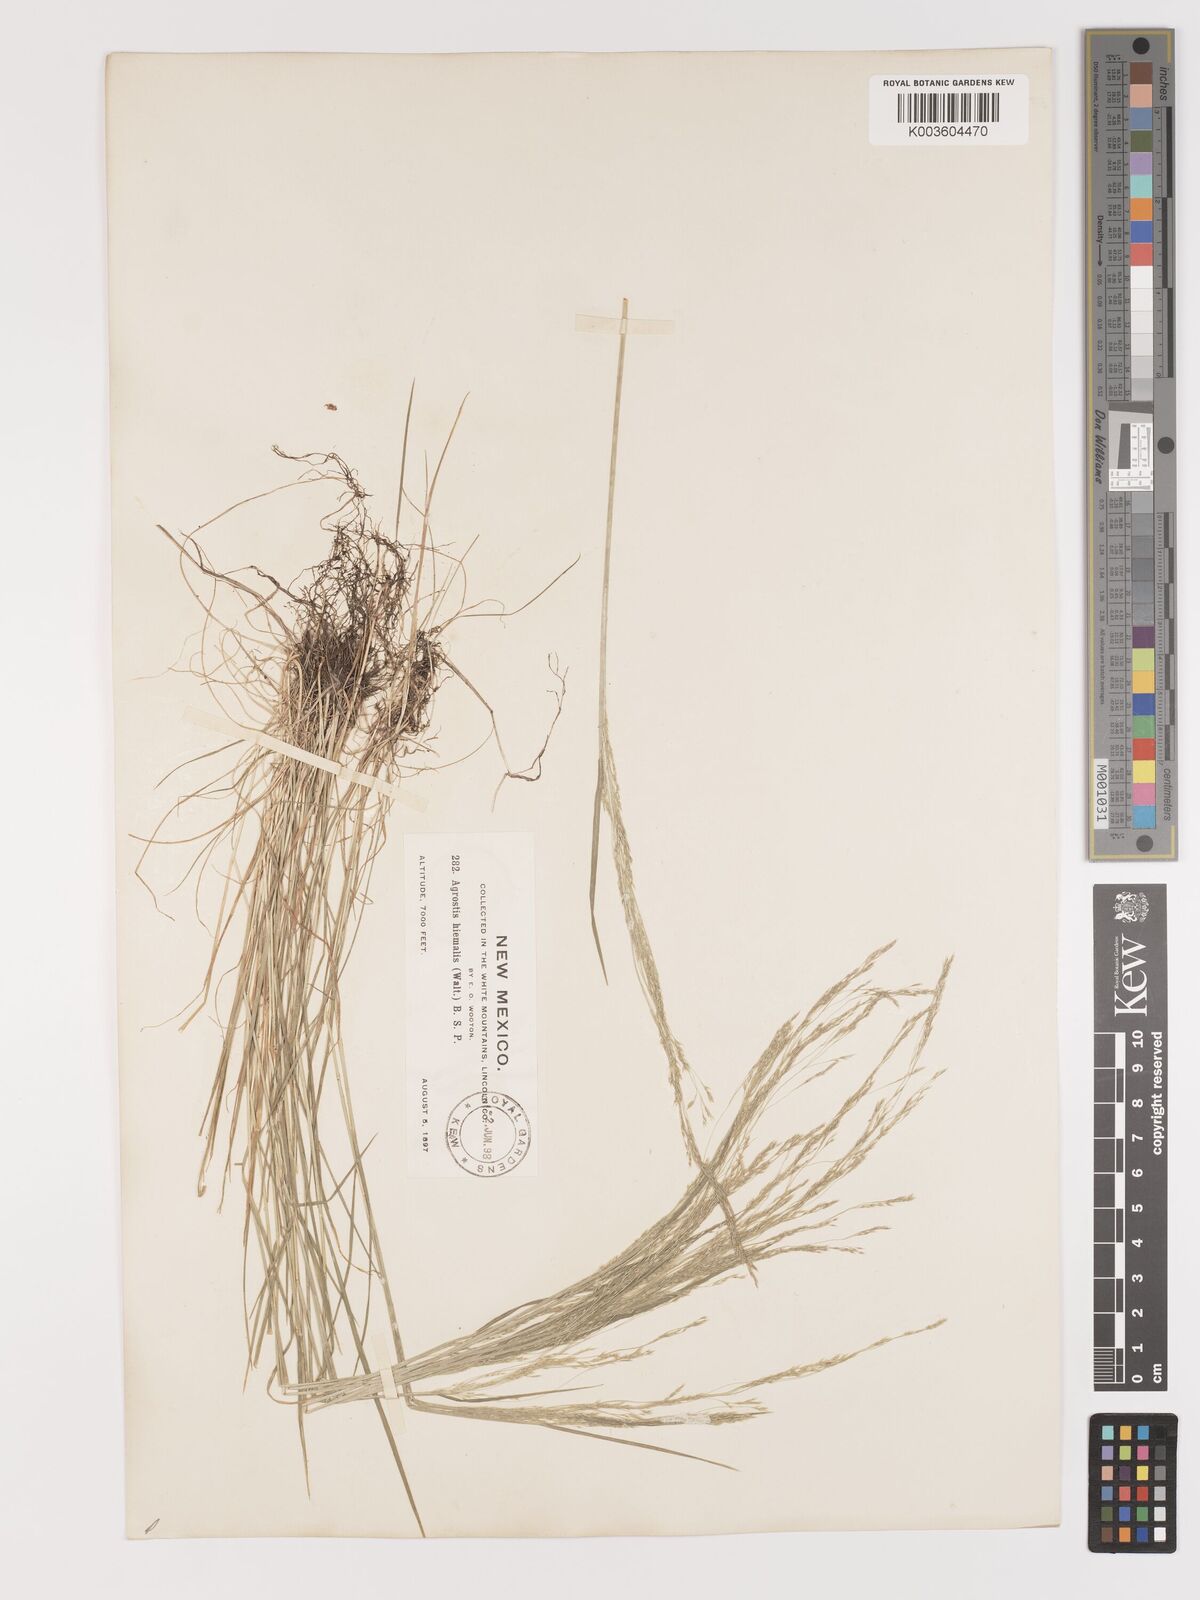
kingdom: Plantae
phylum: Tracheophyta
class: Liliopsida
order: Poales
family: Poaceae
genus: Agrostis
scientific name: Agrostis hyemalis
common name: Small bent
